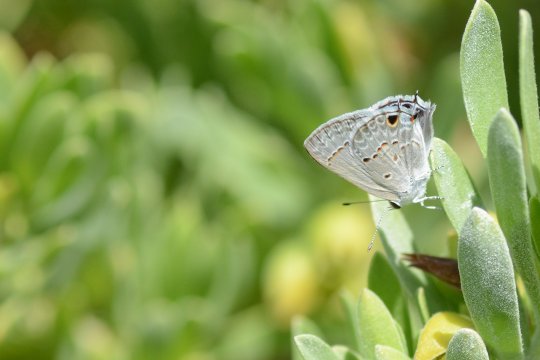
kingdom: Animalia
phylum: Arthropoda
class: Insecta
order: Lepidoptera
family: Lycaenidae
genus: Callicista
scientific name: Callicista columella
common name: Mallow Scrub-Hairstreak
